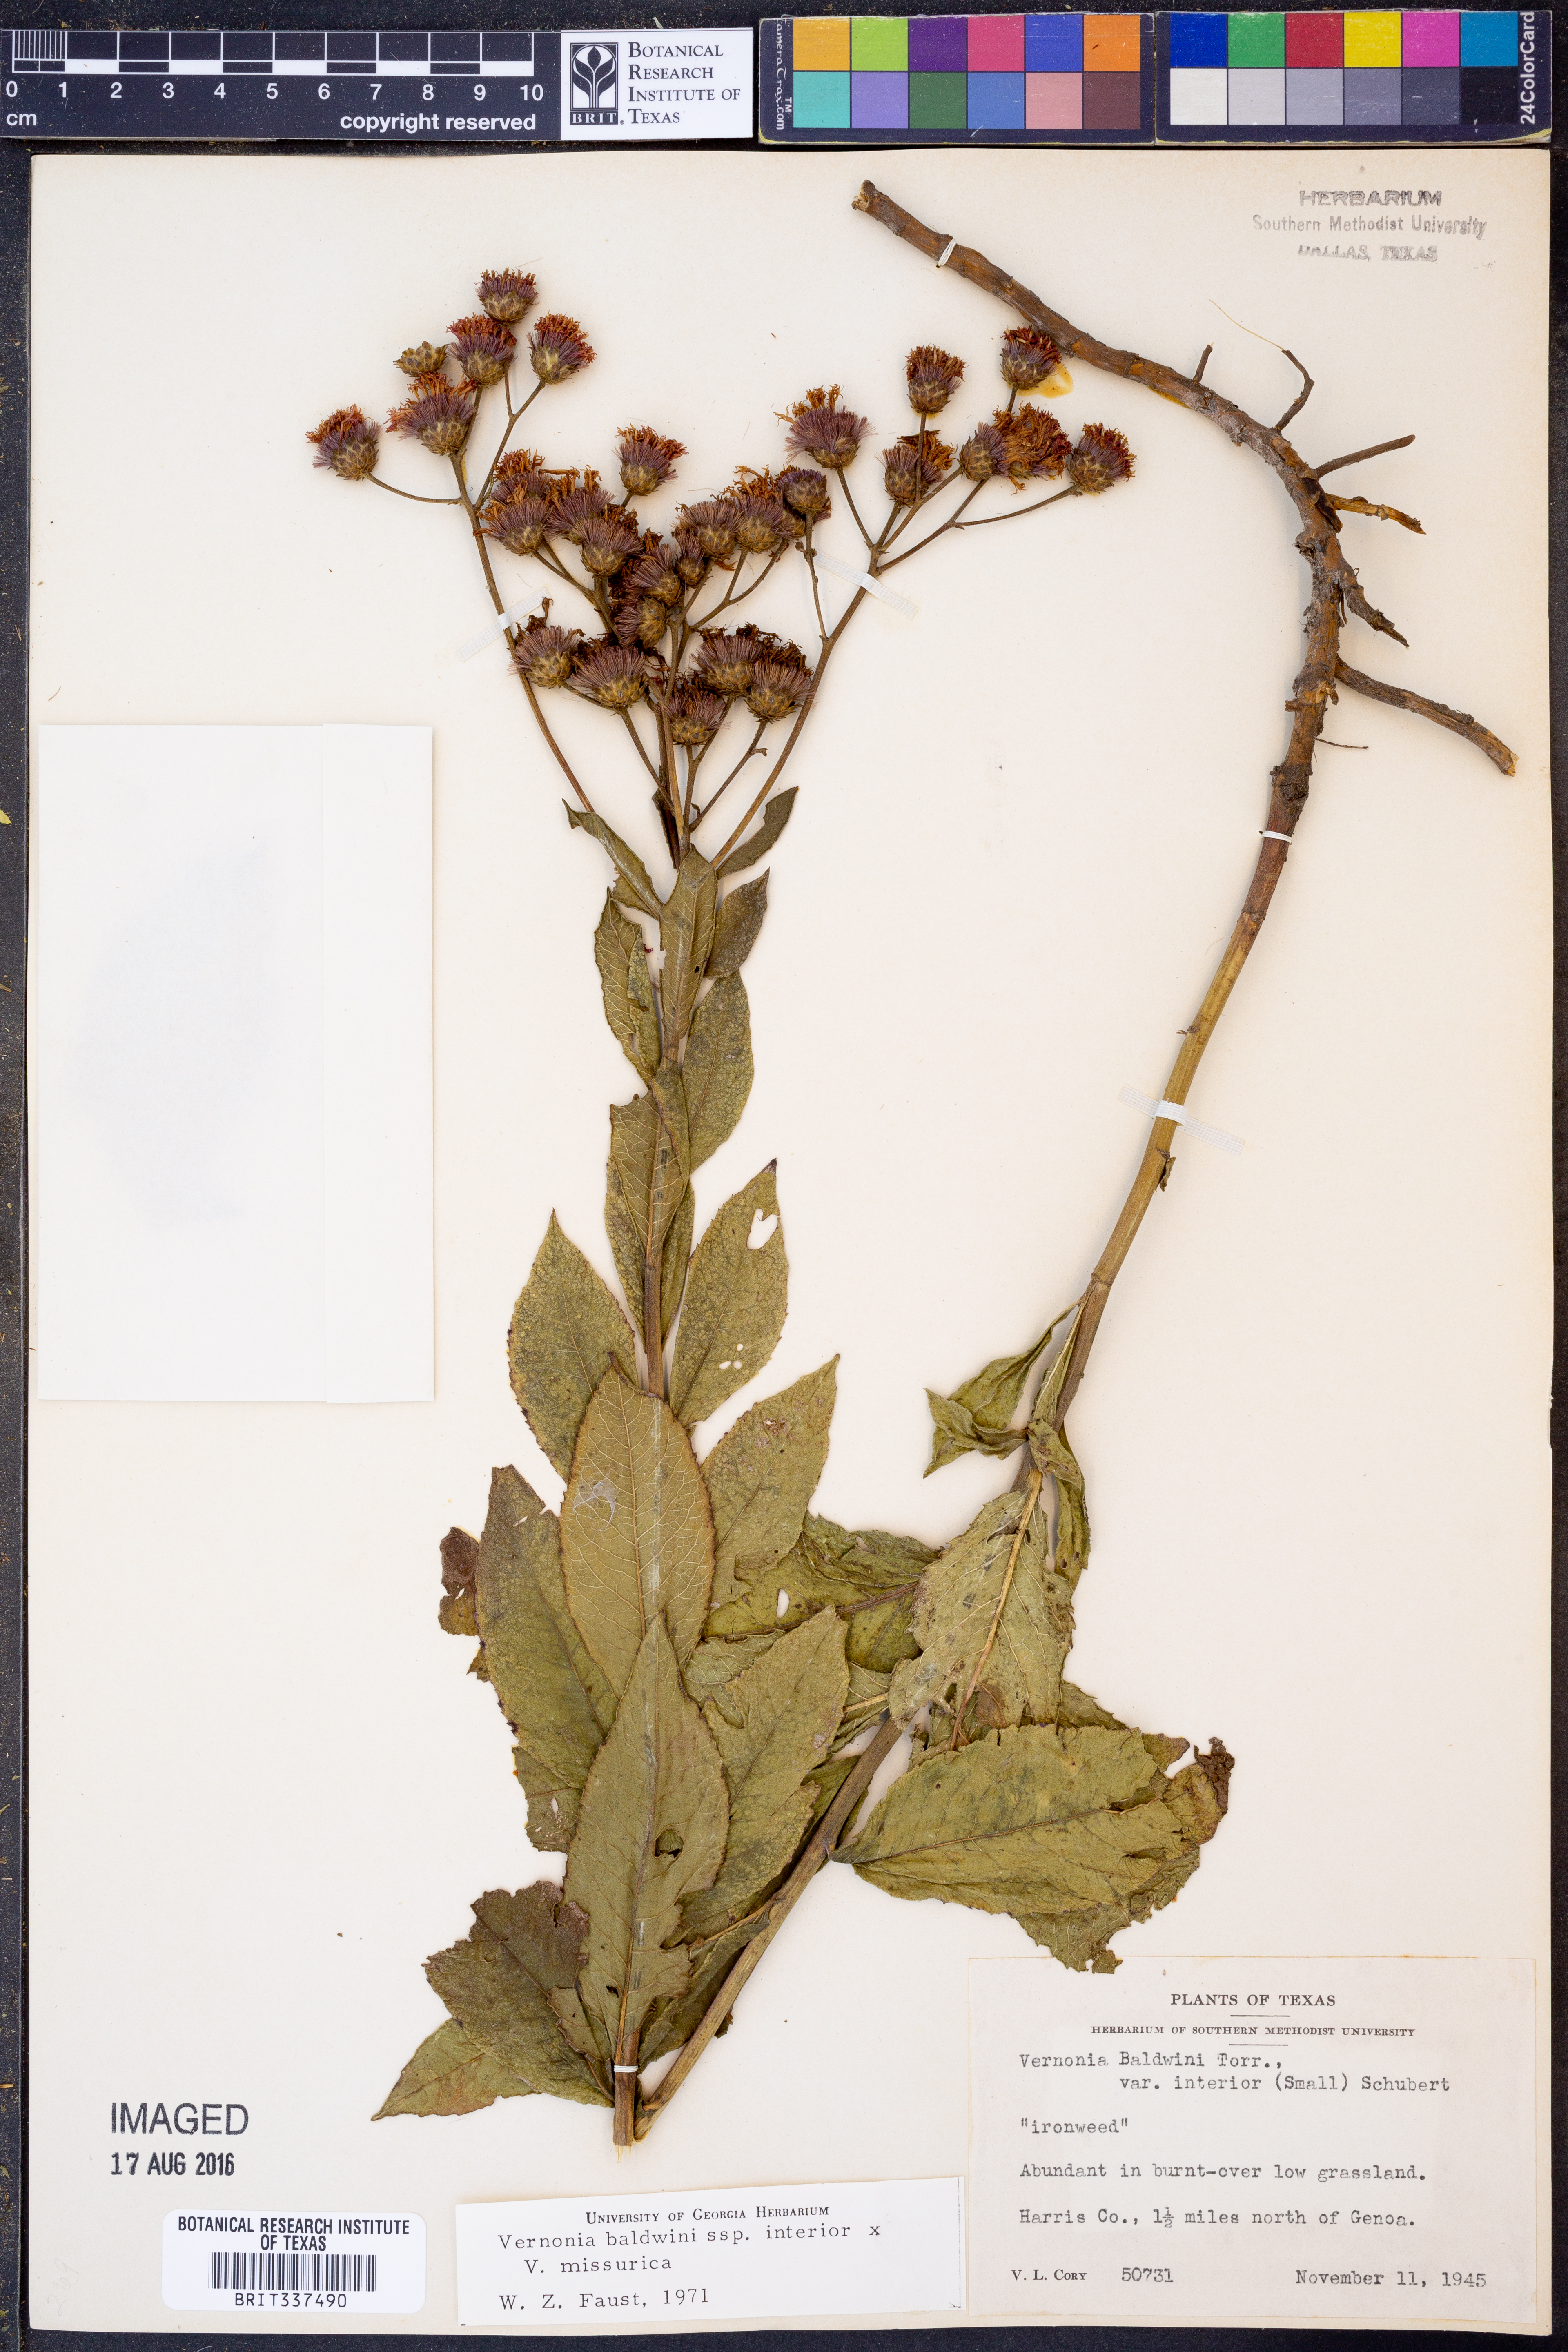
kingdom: Plantae
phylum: Tracheophyta
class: Magnoliopsida
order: Asterales
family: Asteraceae
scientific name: Asteraceae
